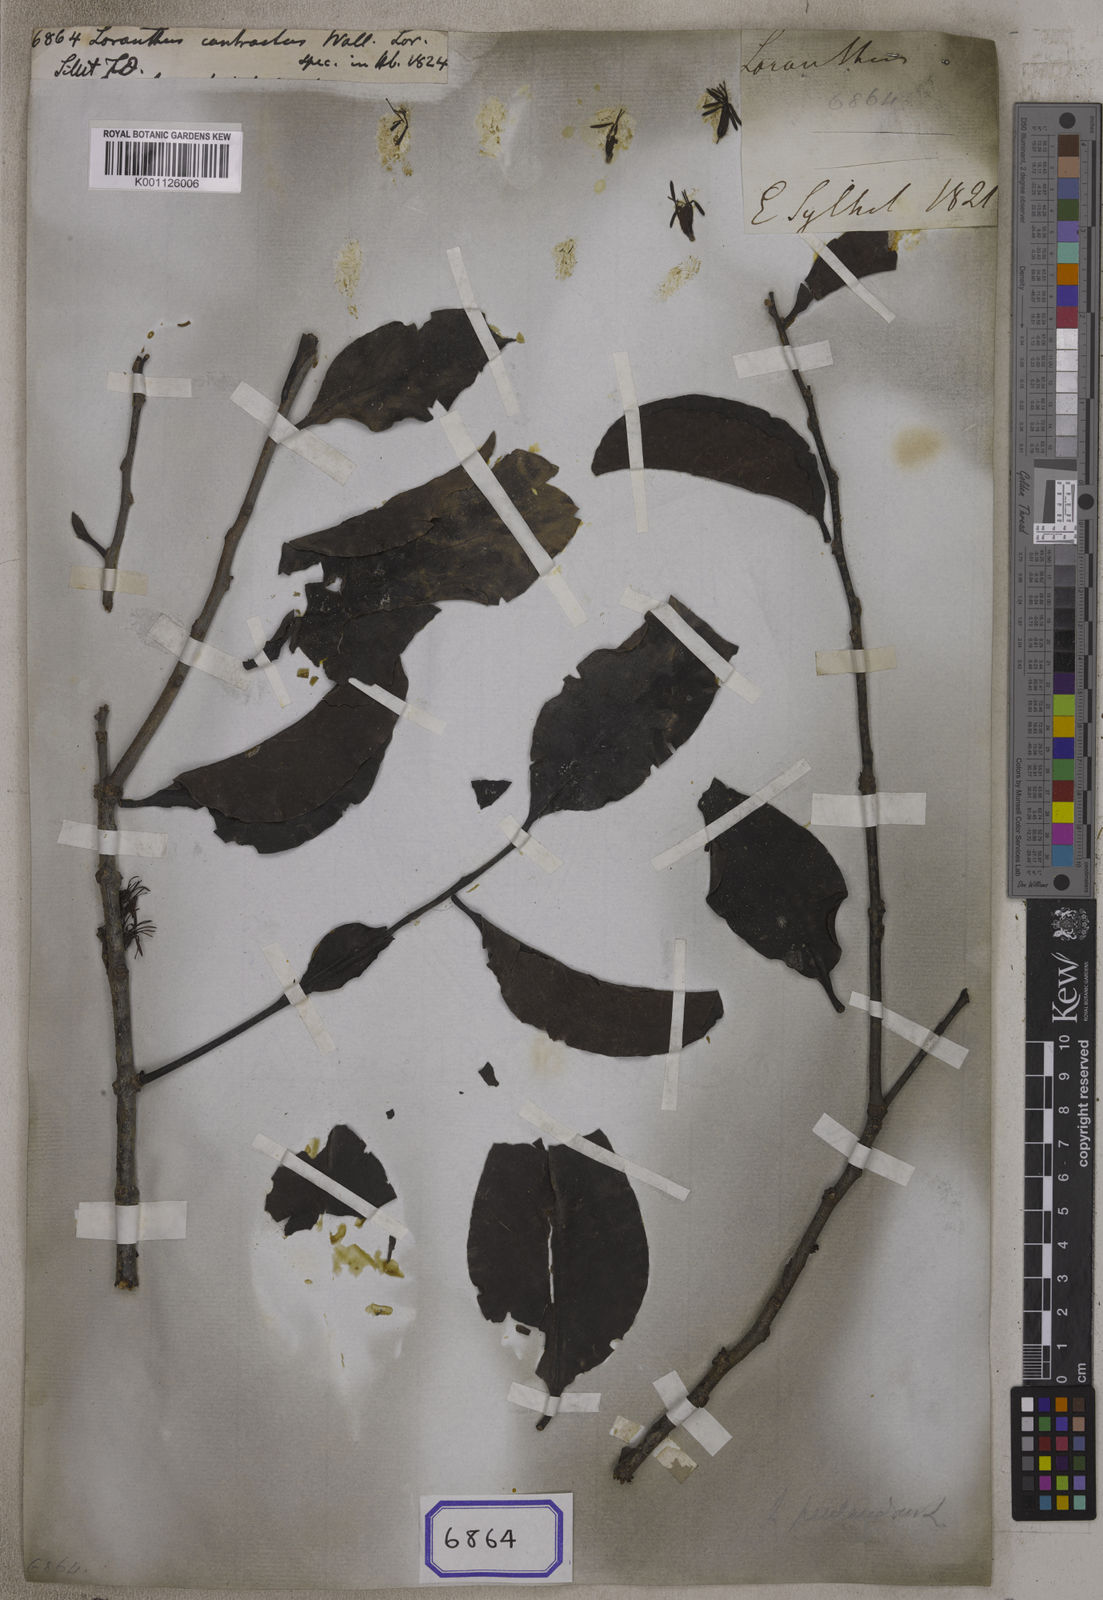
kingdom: Plantae
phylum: Tracheophyta
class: Magnoliopsida
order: Santalales
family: Loranthaceae
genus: Dendrophthoe
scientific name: Dendrophthoe pentandra
